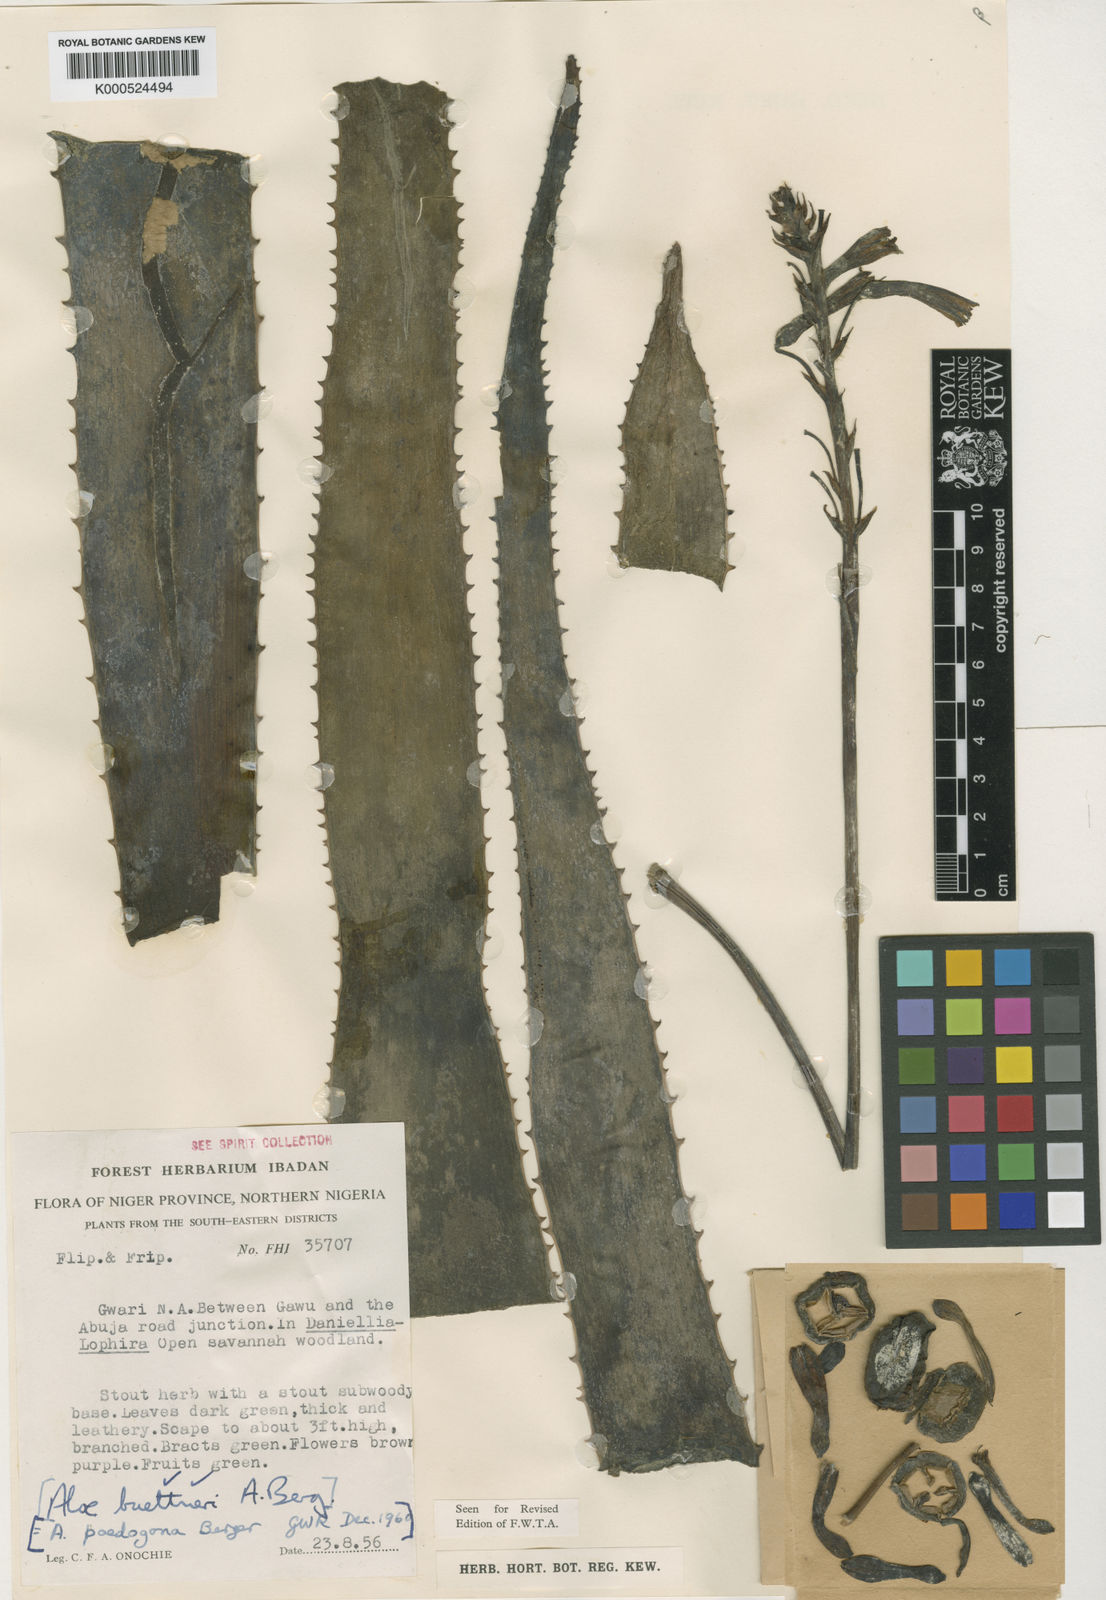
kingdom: Plantae
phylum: Tracheophyta
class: Liliopsida
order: Asparagales
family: Asphodelaceae
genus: Aloe
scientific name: Aloe buettneri
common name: West african aloe
